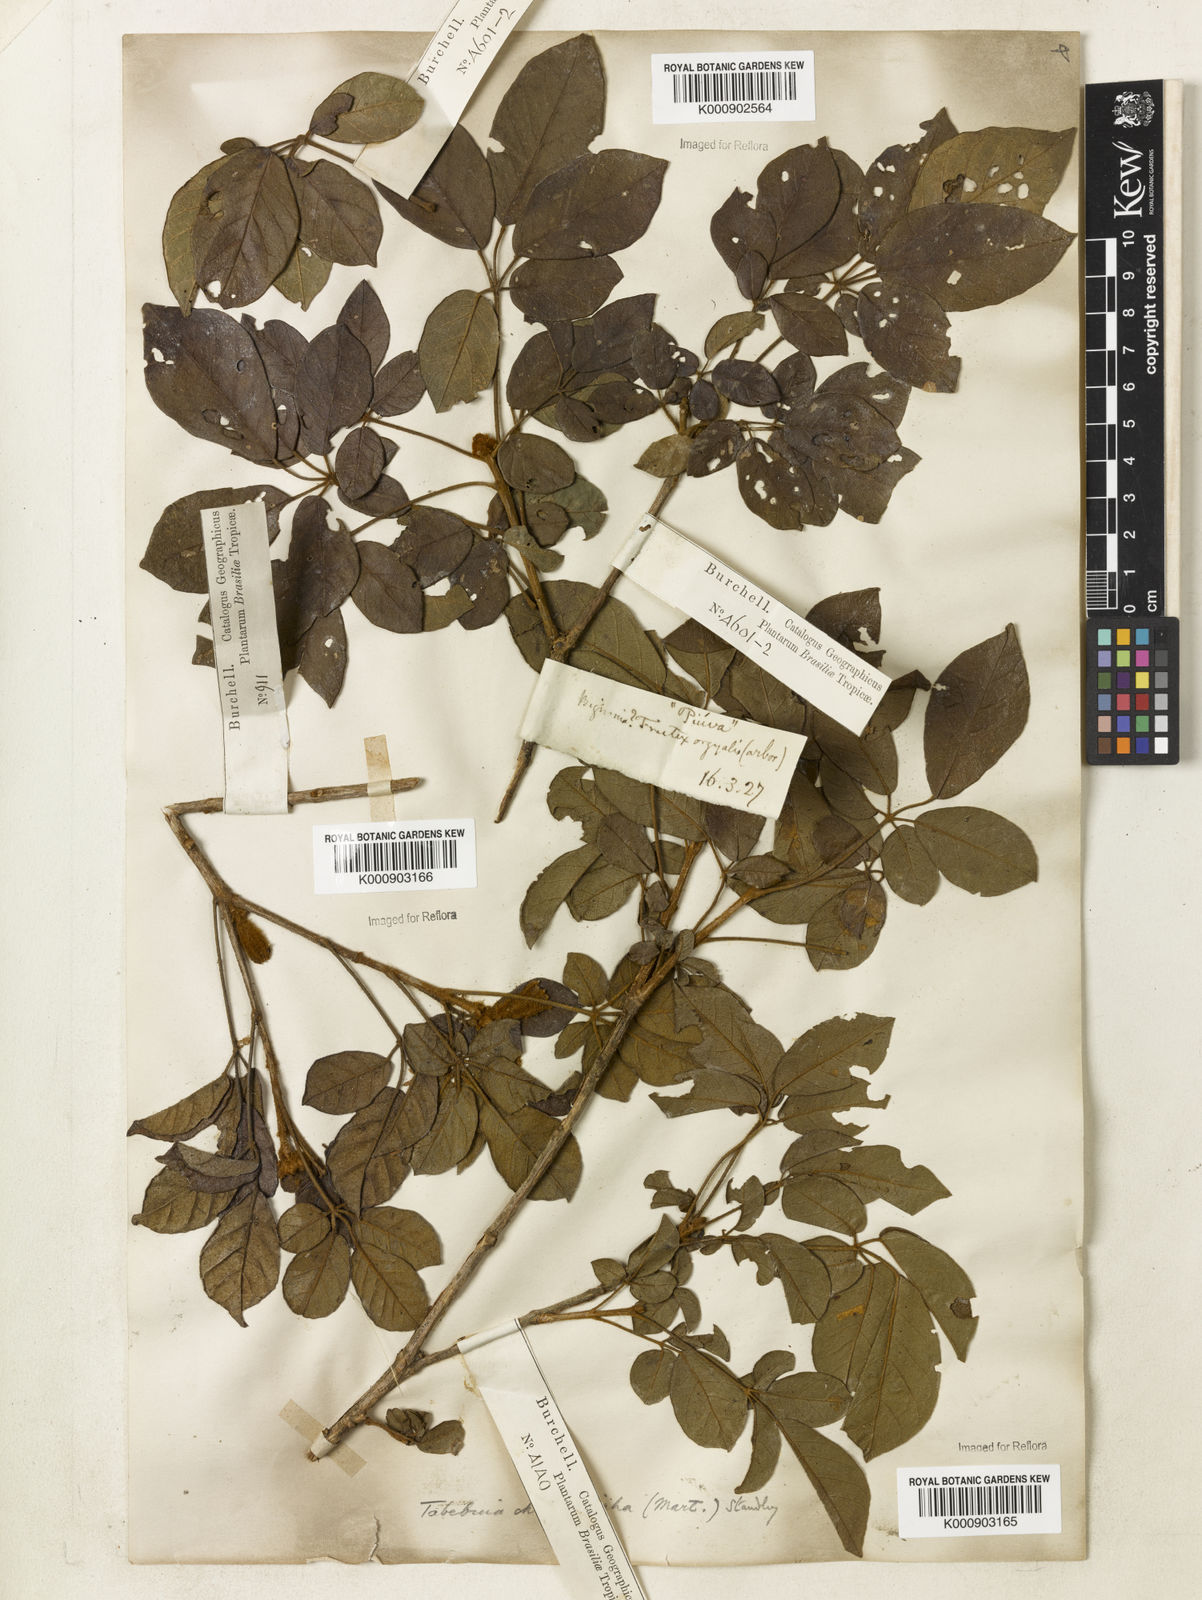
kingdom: Plantae
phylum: Tracheophyta
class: Magnoliopsida
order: Lamiales
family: Bignoniaceae
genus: Handroanthus
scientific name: Handroanthus chrysotrichus
